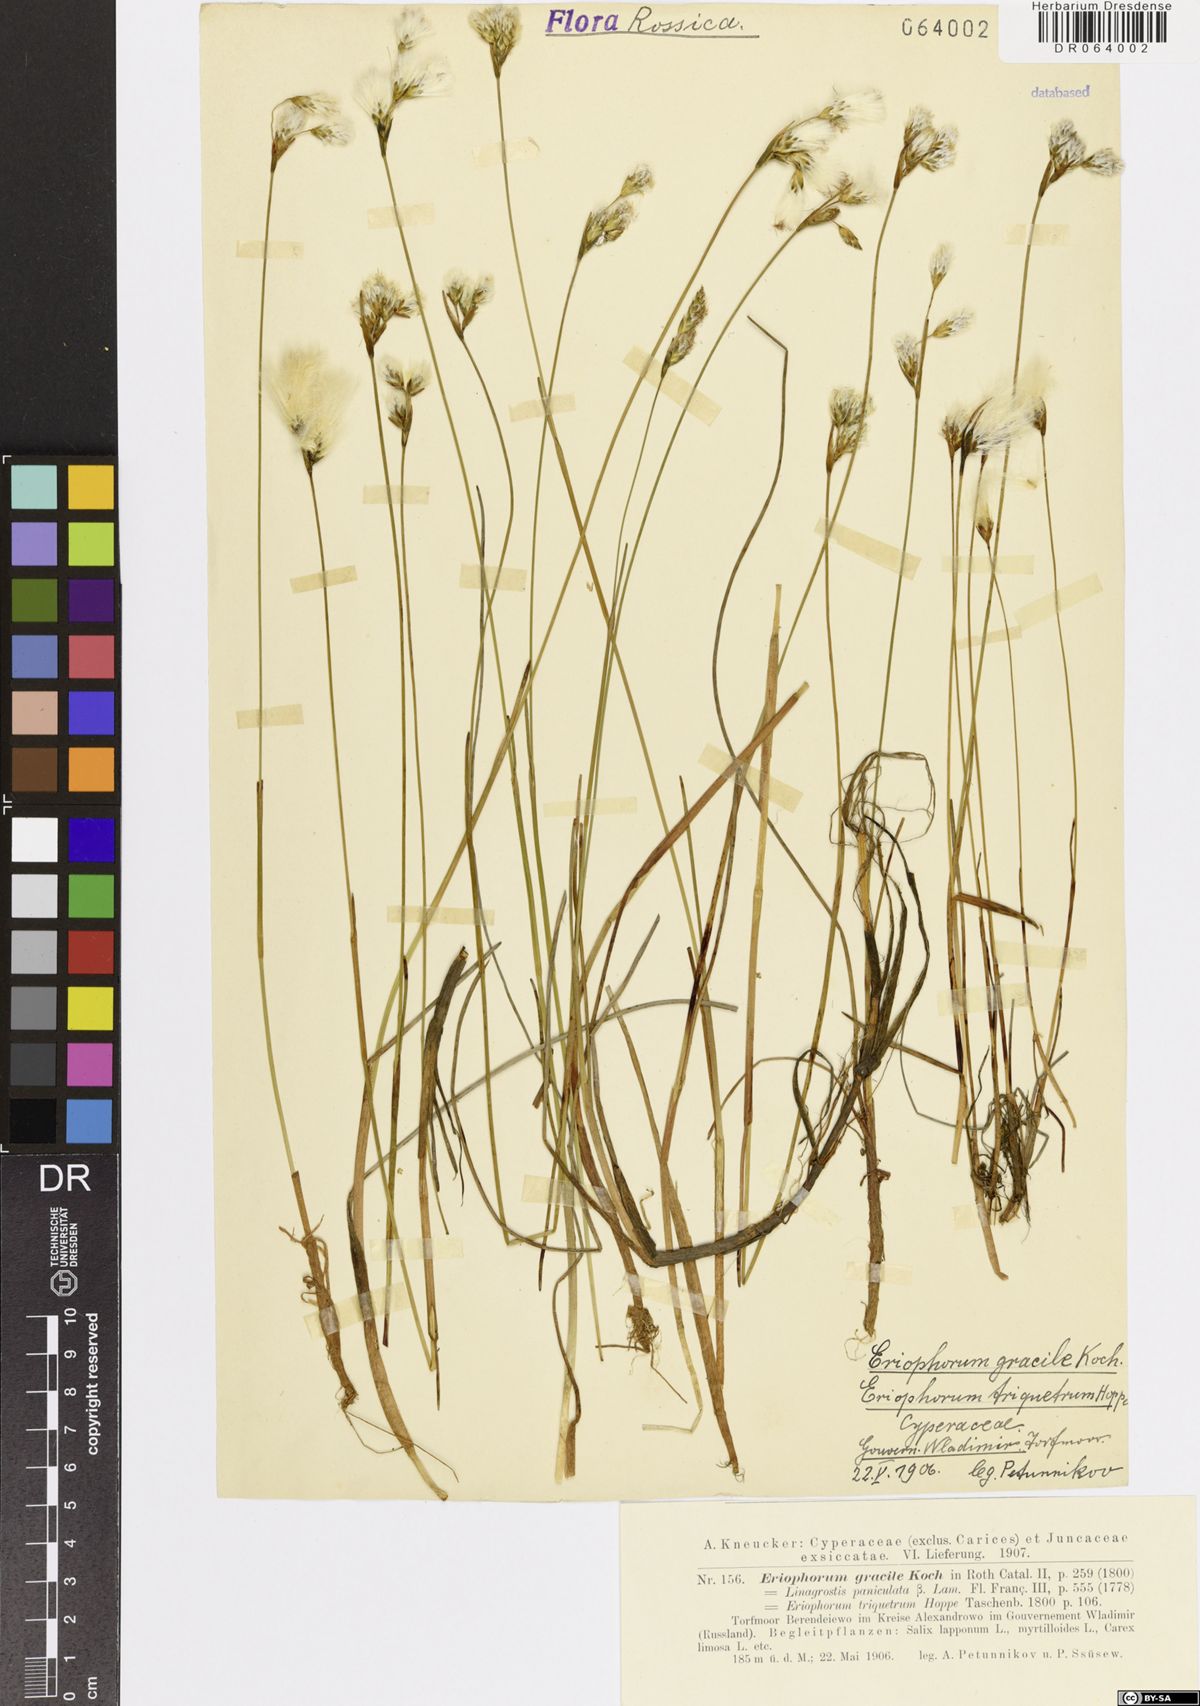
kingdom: Plantae
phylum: Tracheophyta
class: Liliopsida
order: Poales
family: Cyperaceae
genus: Eriophorum
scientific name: Eriophorum gracile
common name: Slender cottongrass
